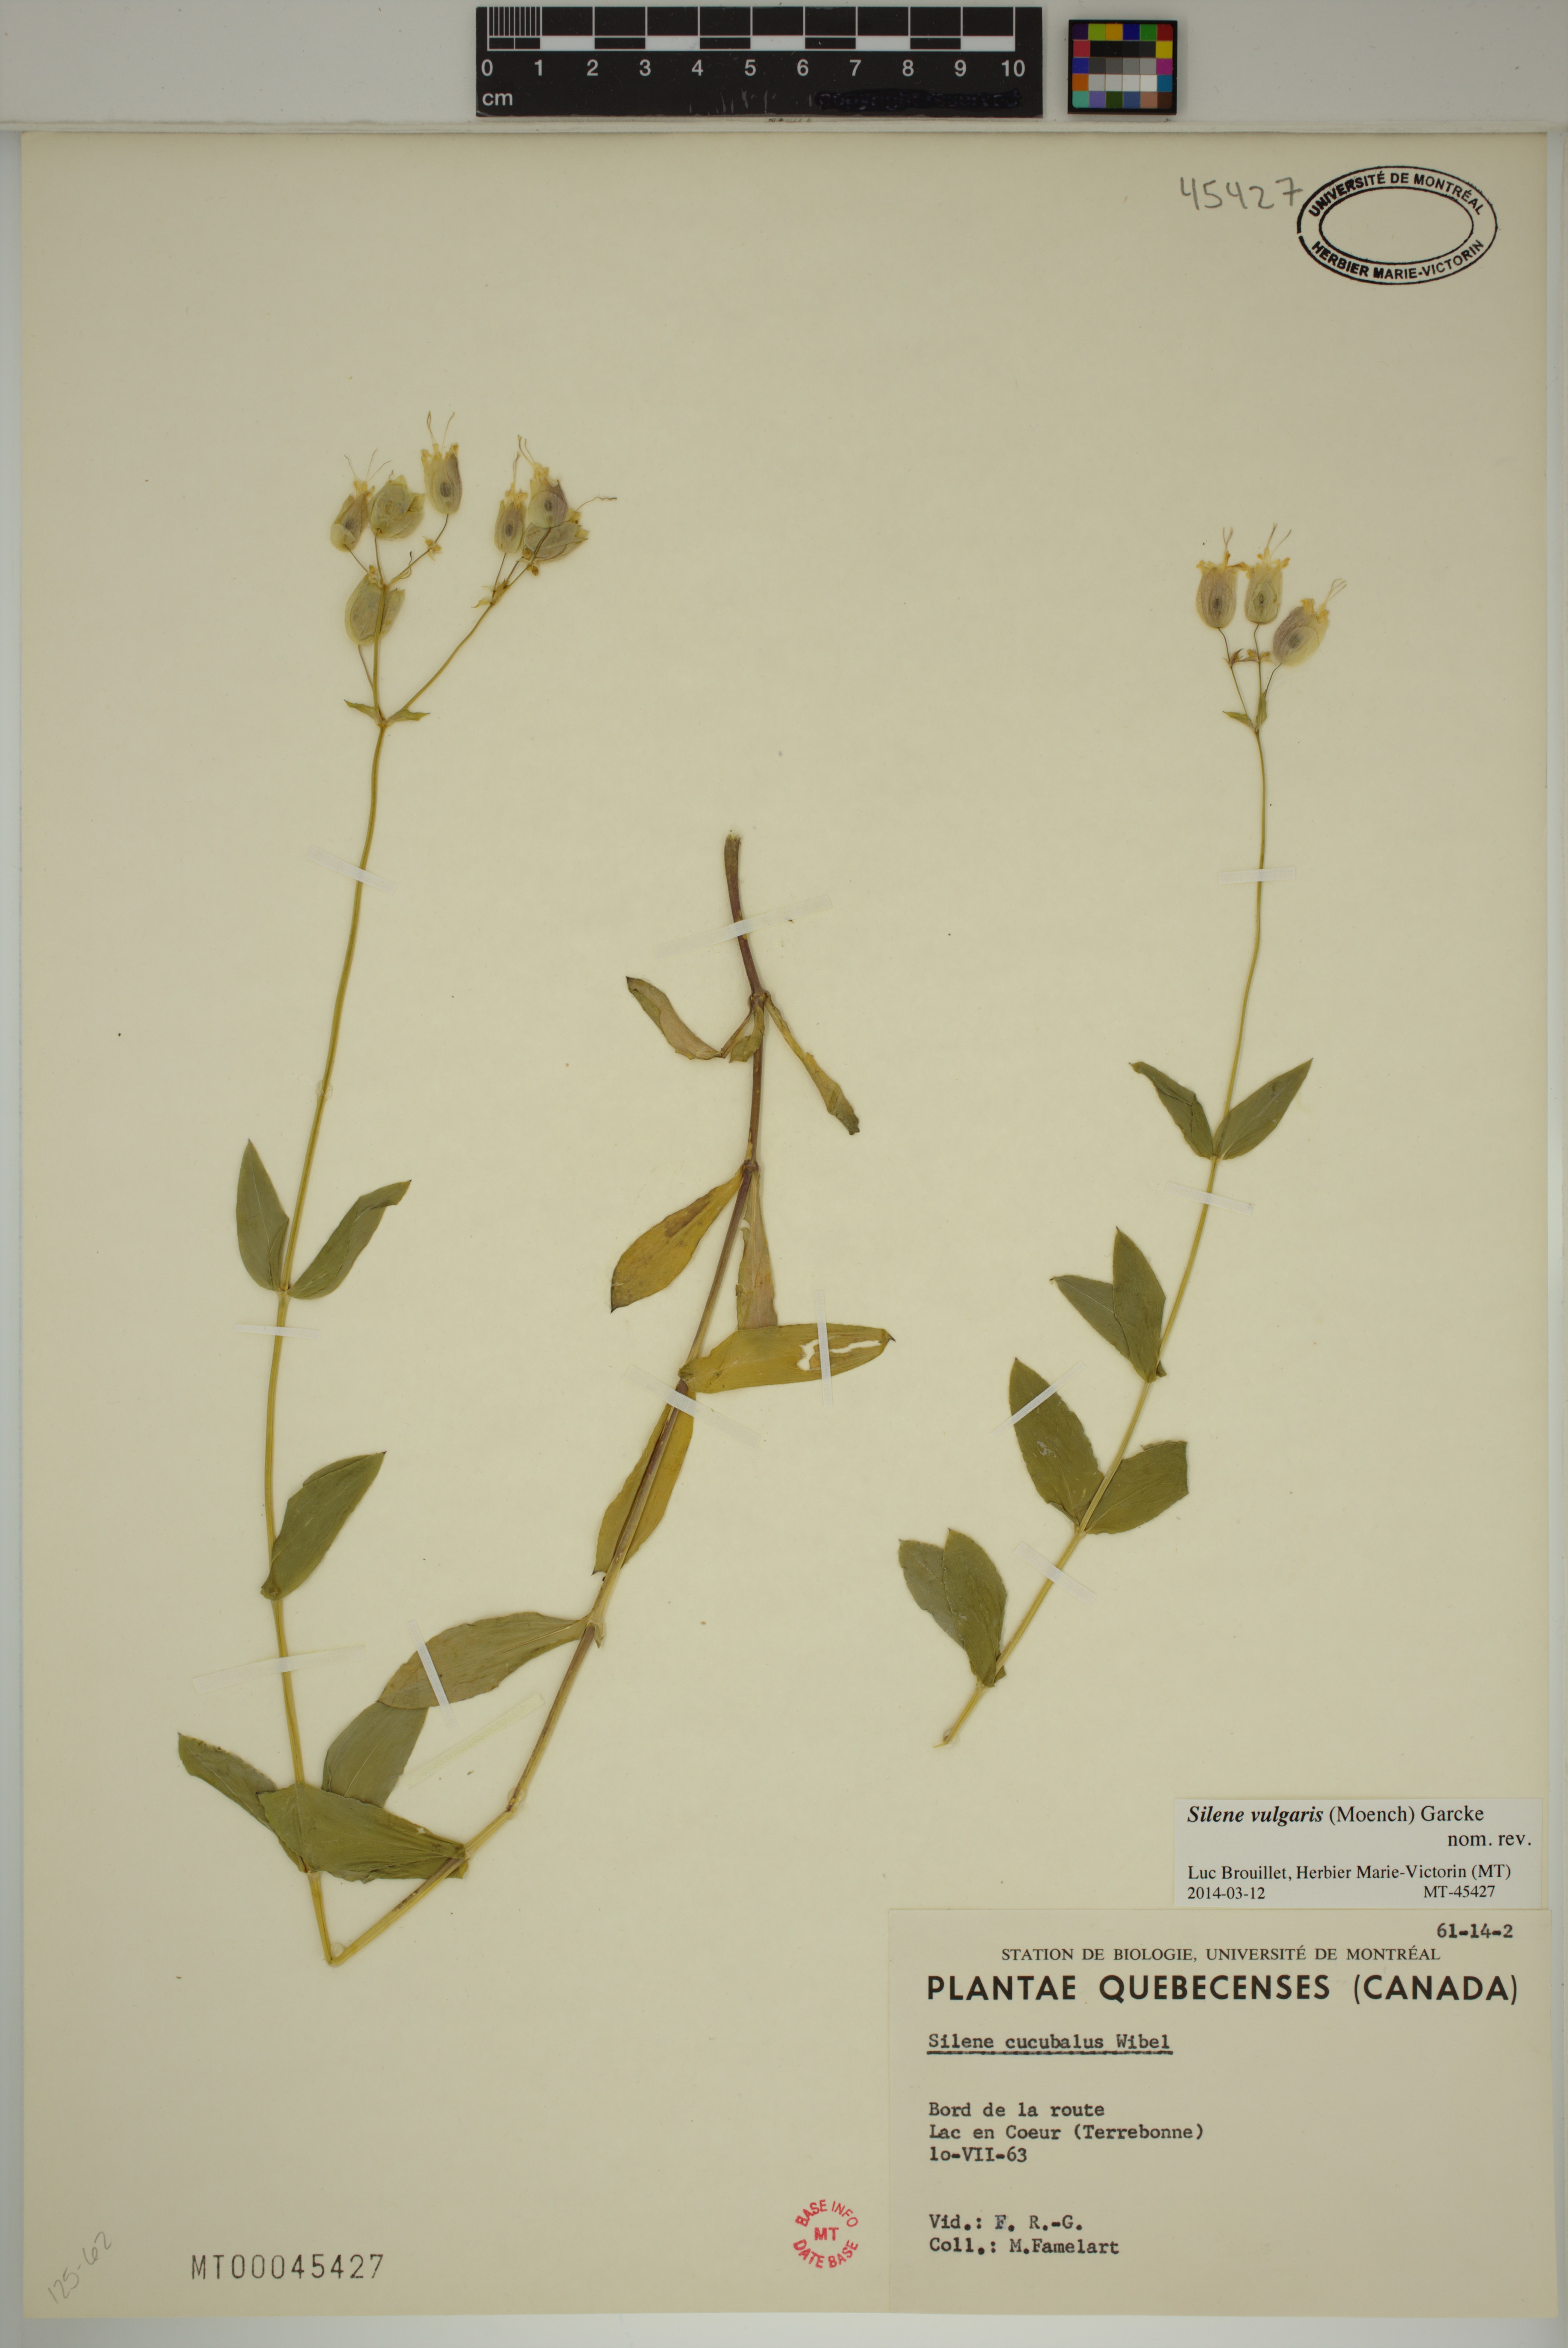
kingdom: Plantae
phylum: Tracheophyta
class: Magnoliopsida
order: Caryophyllales
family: Caryophyllaceae
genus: Silene
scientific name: Silene vulgaris
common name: Bladder campion
